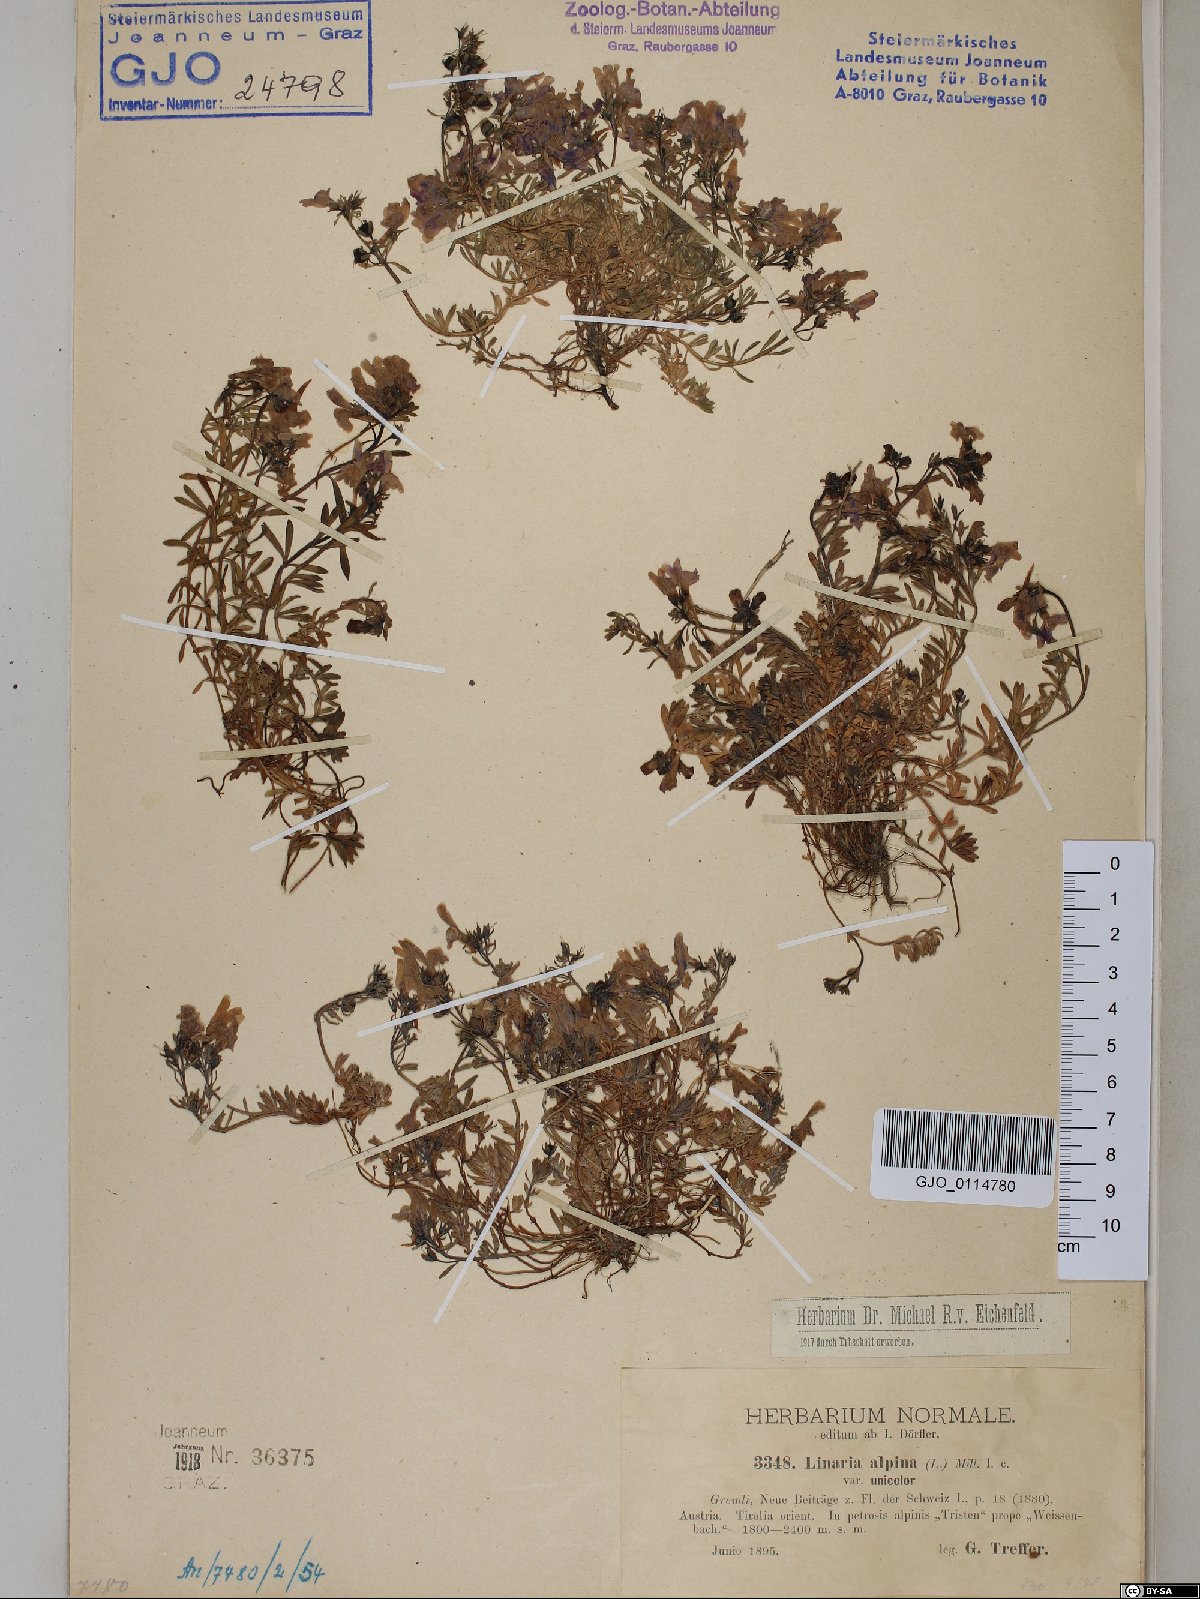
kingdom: Plantae
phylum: Tracheophyta
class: Magnoliopsida
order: Lamiales
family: Plantaginaceae
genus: Linaria
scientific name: Linaria alpina
